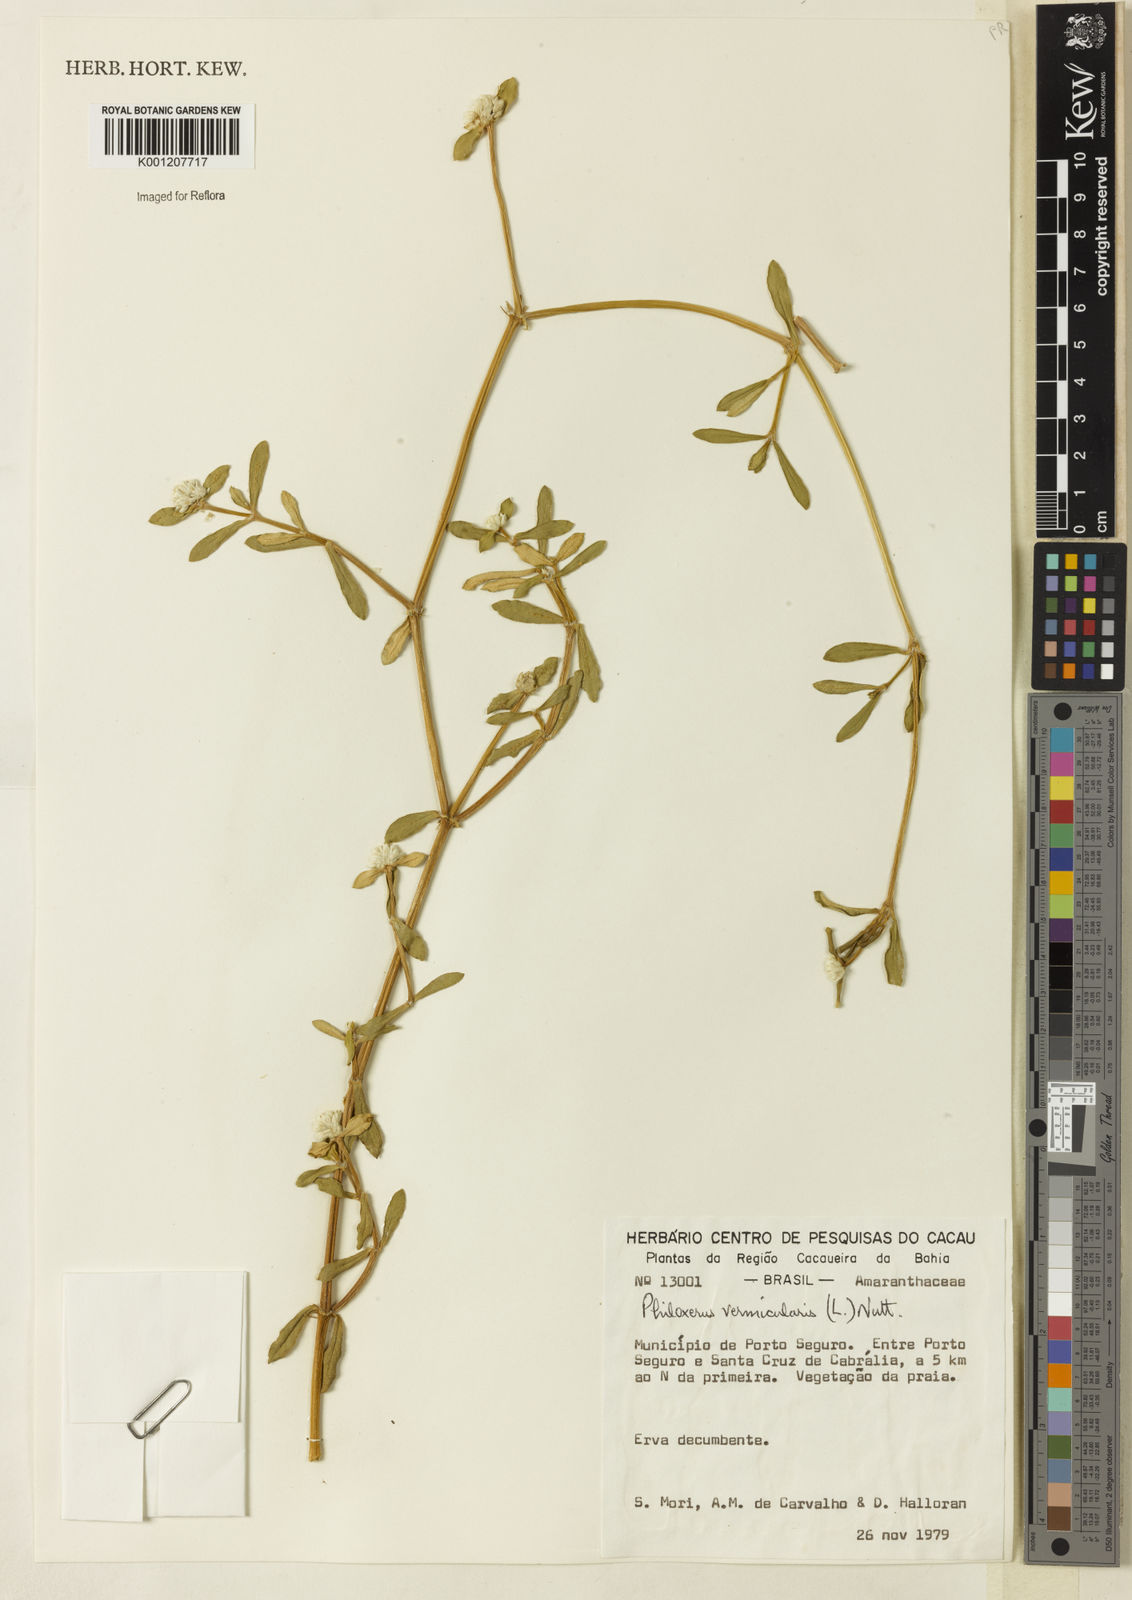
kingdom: Plantae
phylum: Tracheophyta
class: Magnoliopsida
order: Caryophyllales
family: Amaranthaceae
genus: Gomphrena
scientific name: Gomphrena vermicularis
